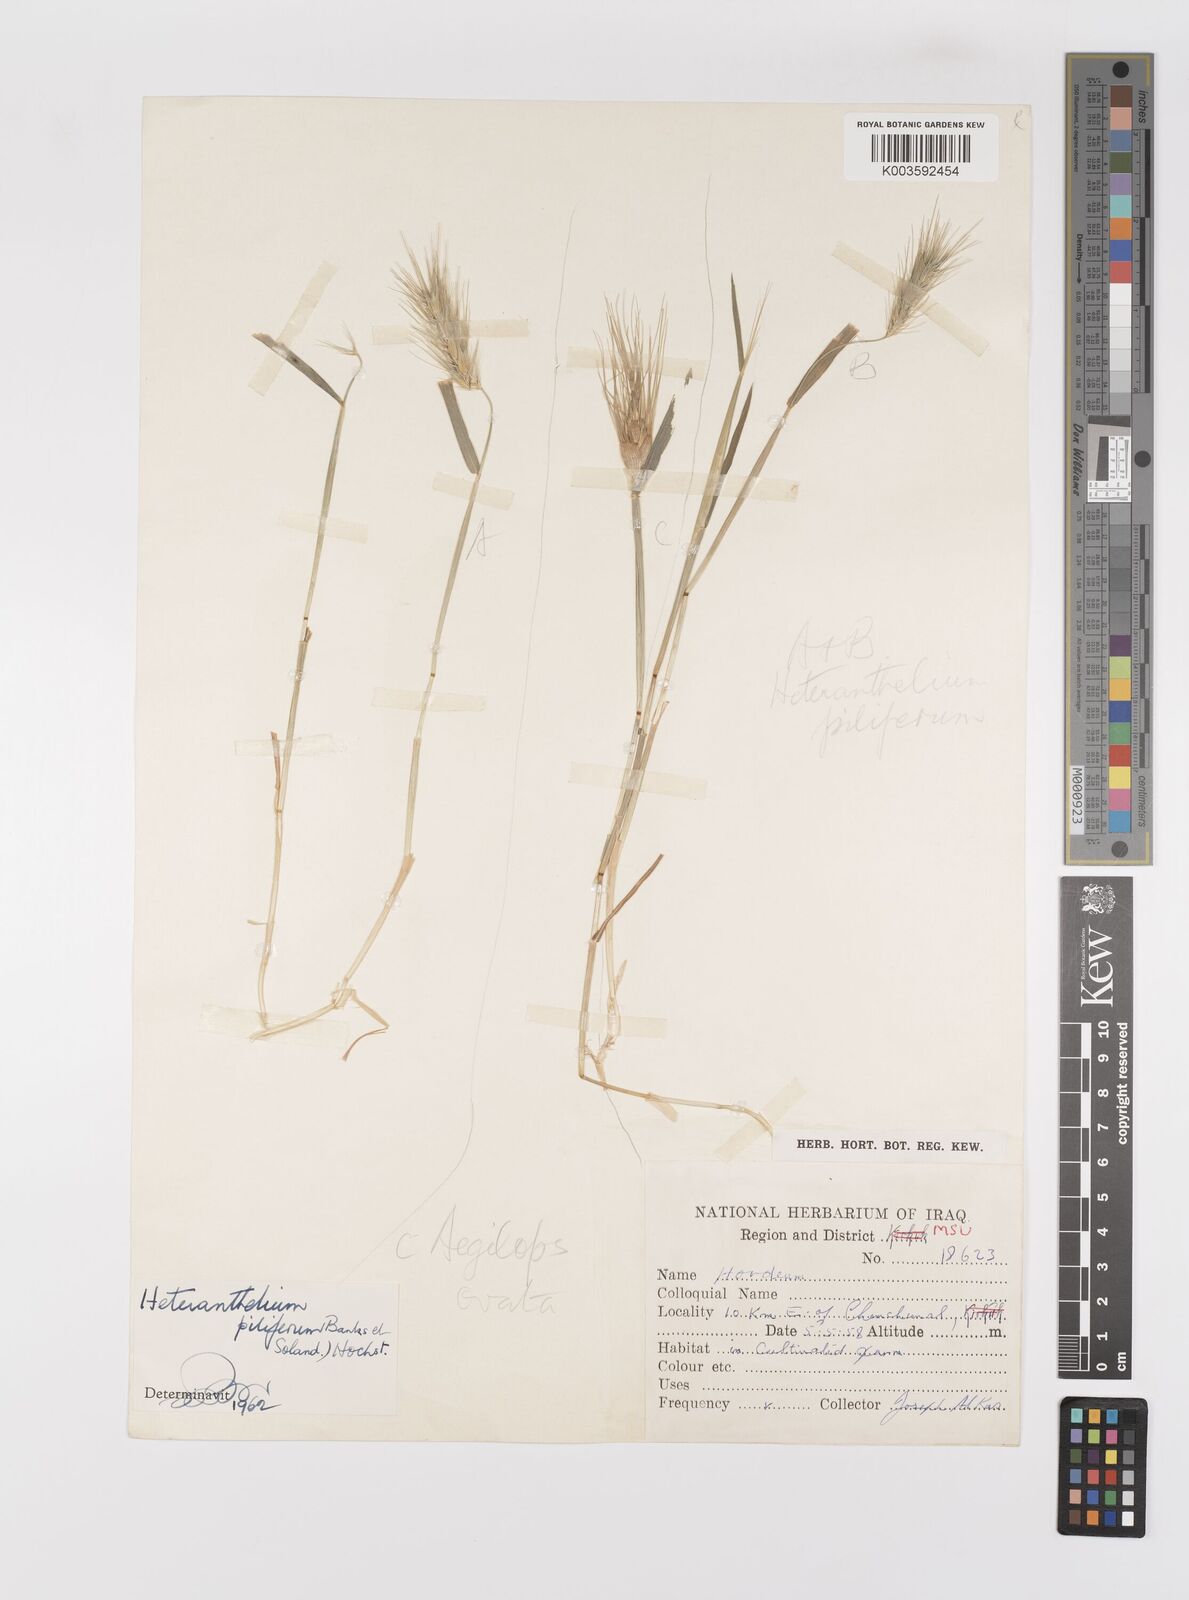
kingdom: Plantae
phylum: Tracheophyta
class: Liliopsida
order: Poales
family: Poaceae
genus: Heteranthelium
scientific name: Heteranthelium piliferum
